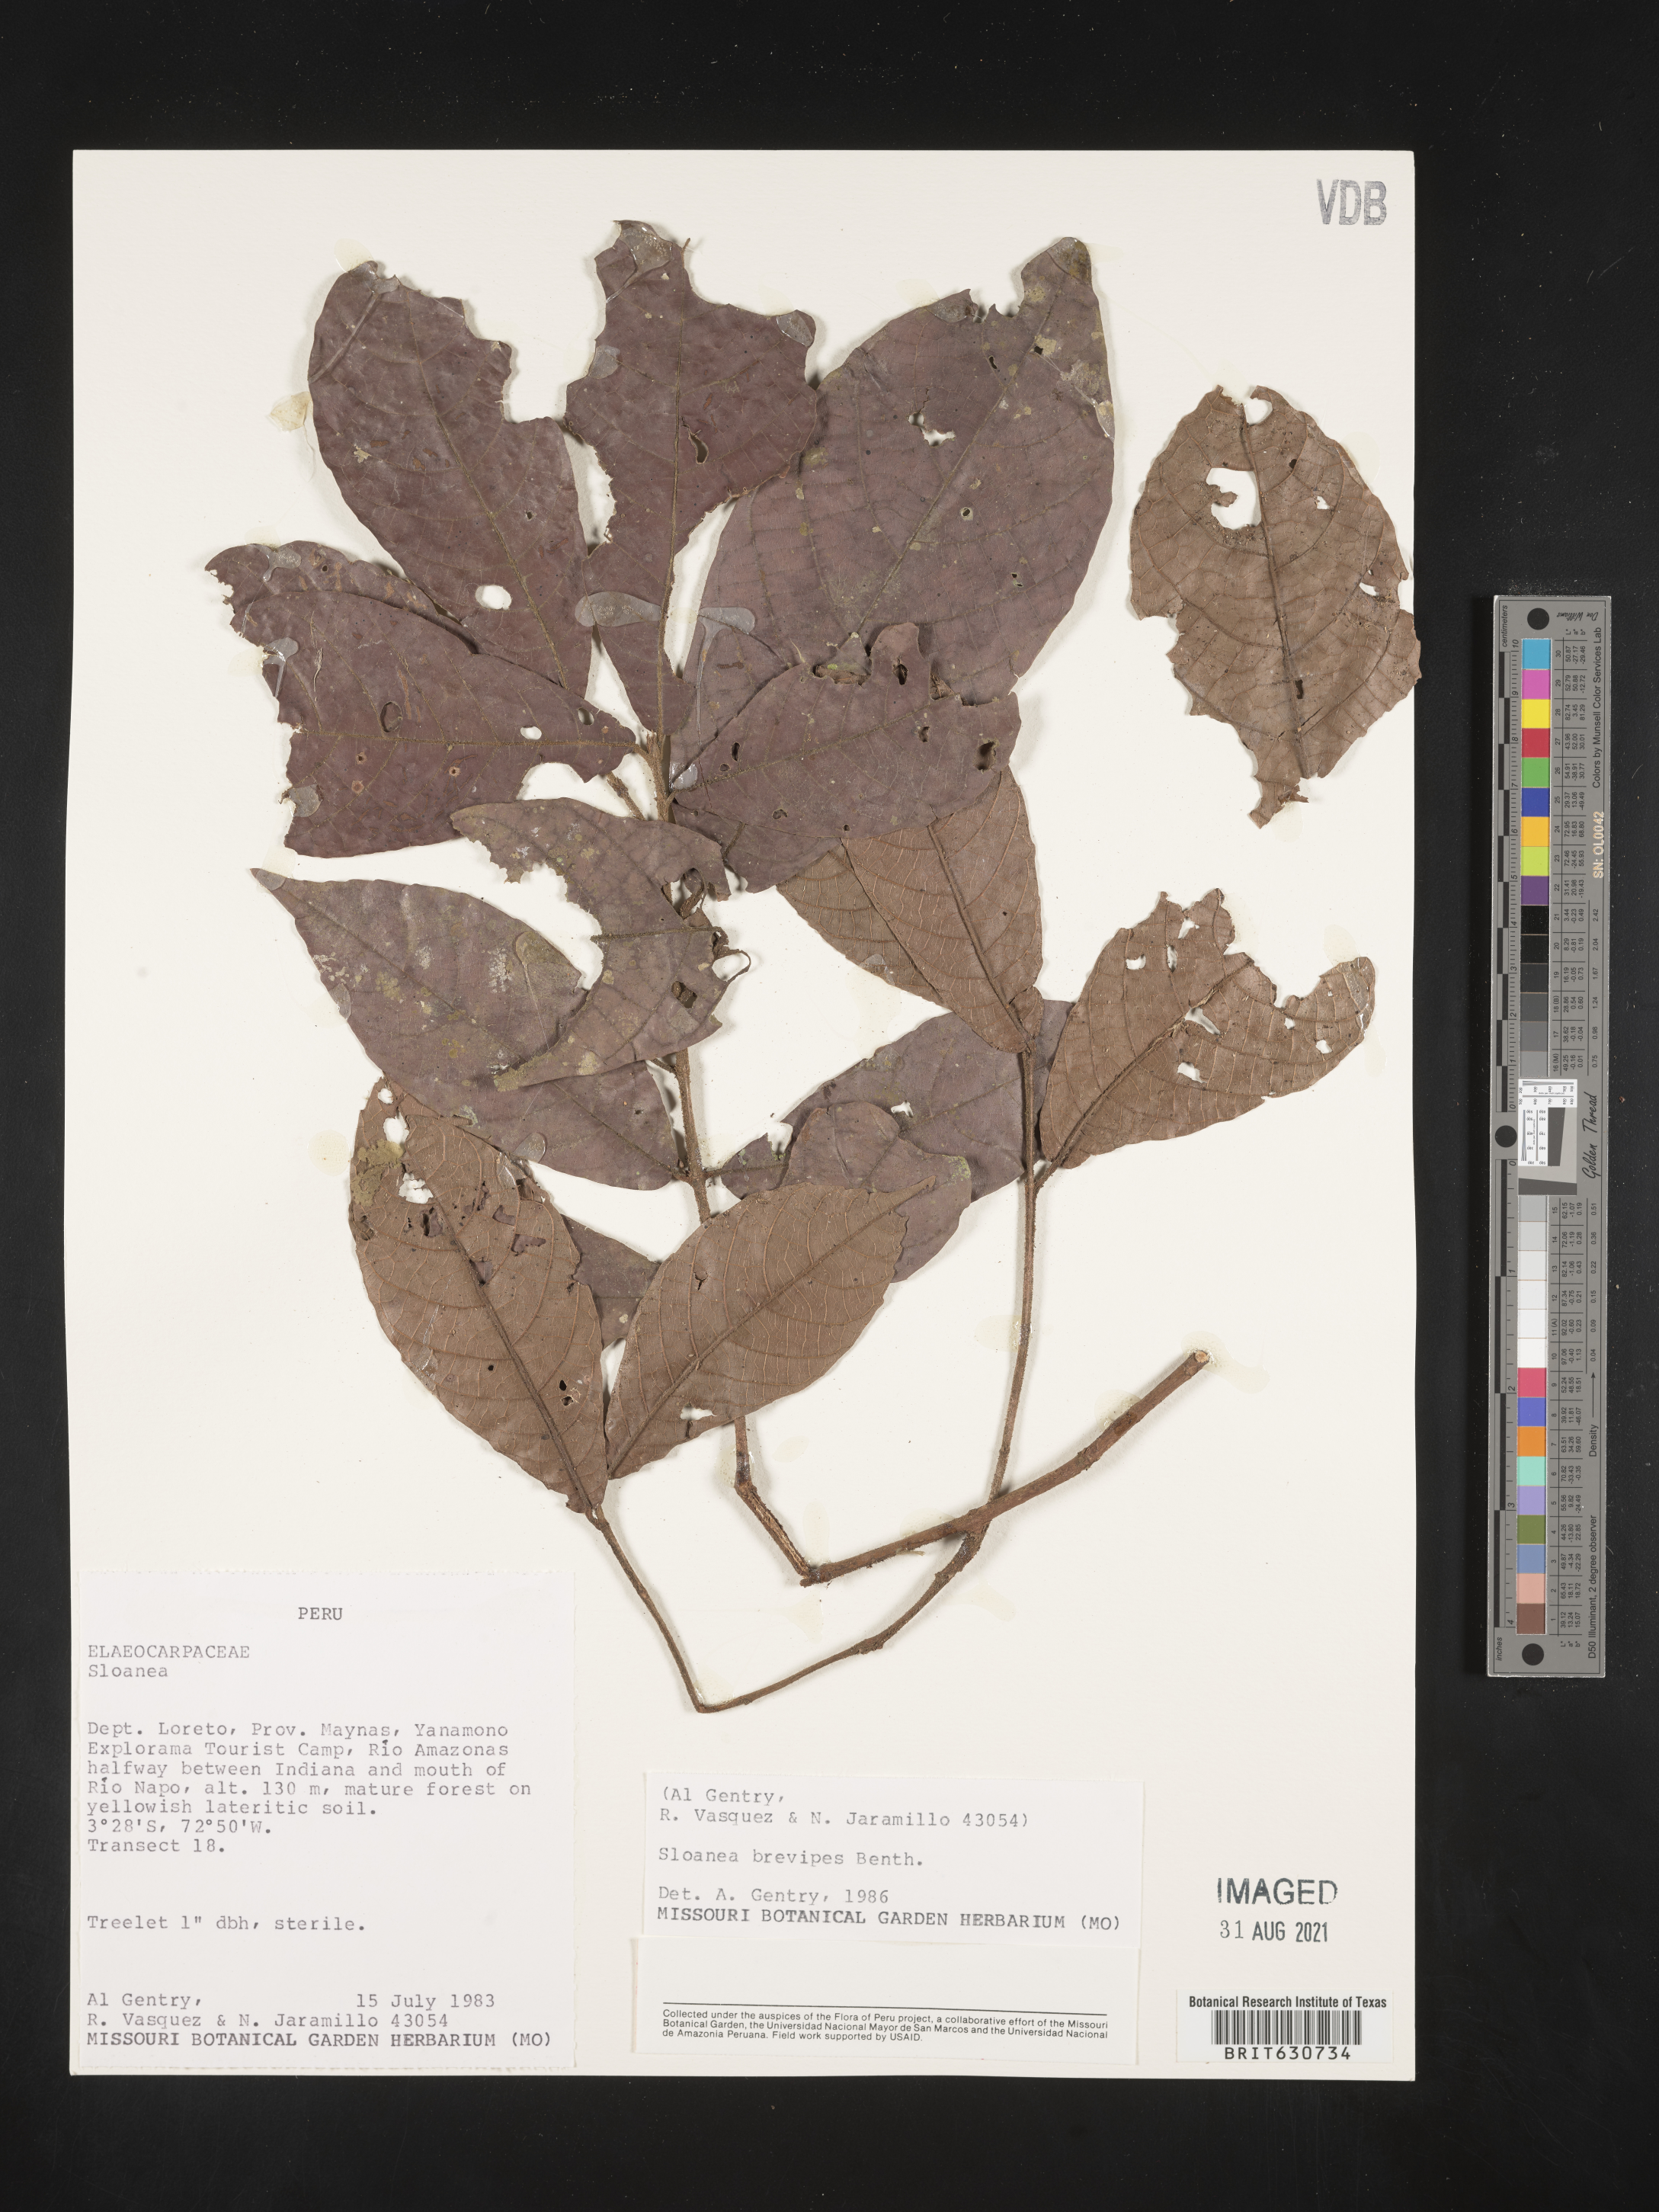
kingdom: Plantae
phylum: Tracheophyta
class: Magnoliopsida
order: Oxalidales
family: Elaeocarpaceae
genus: Sloanea
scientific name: Sloanea
